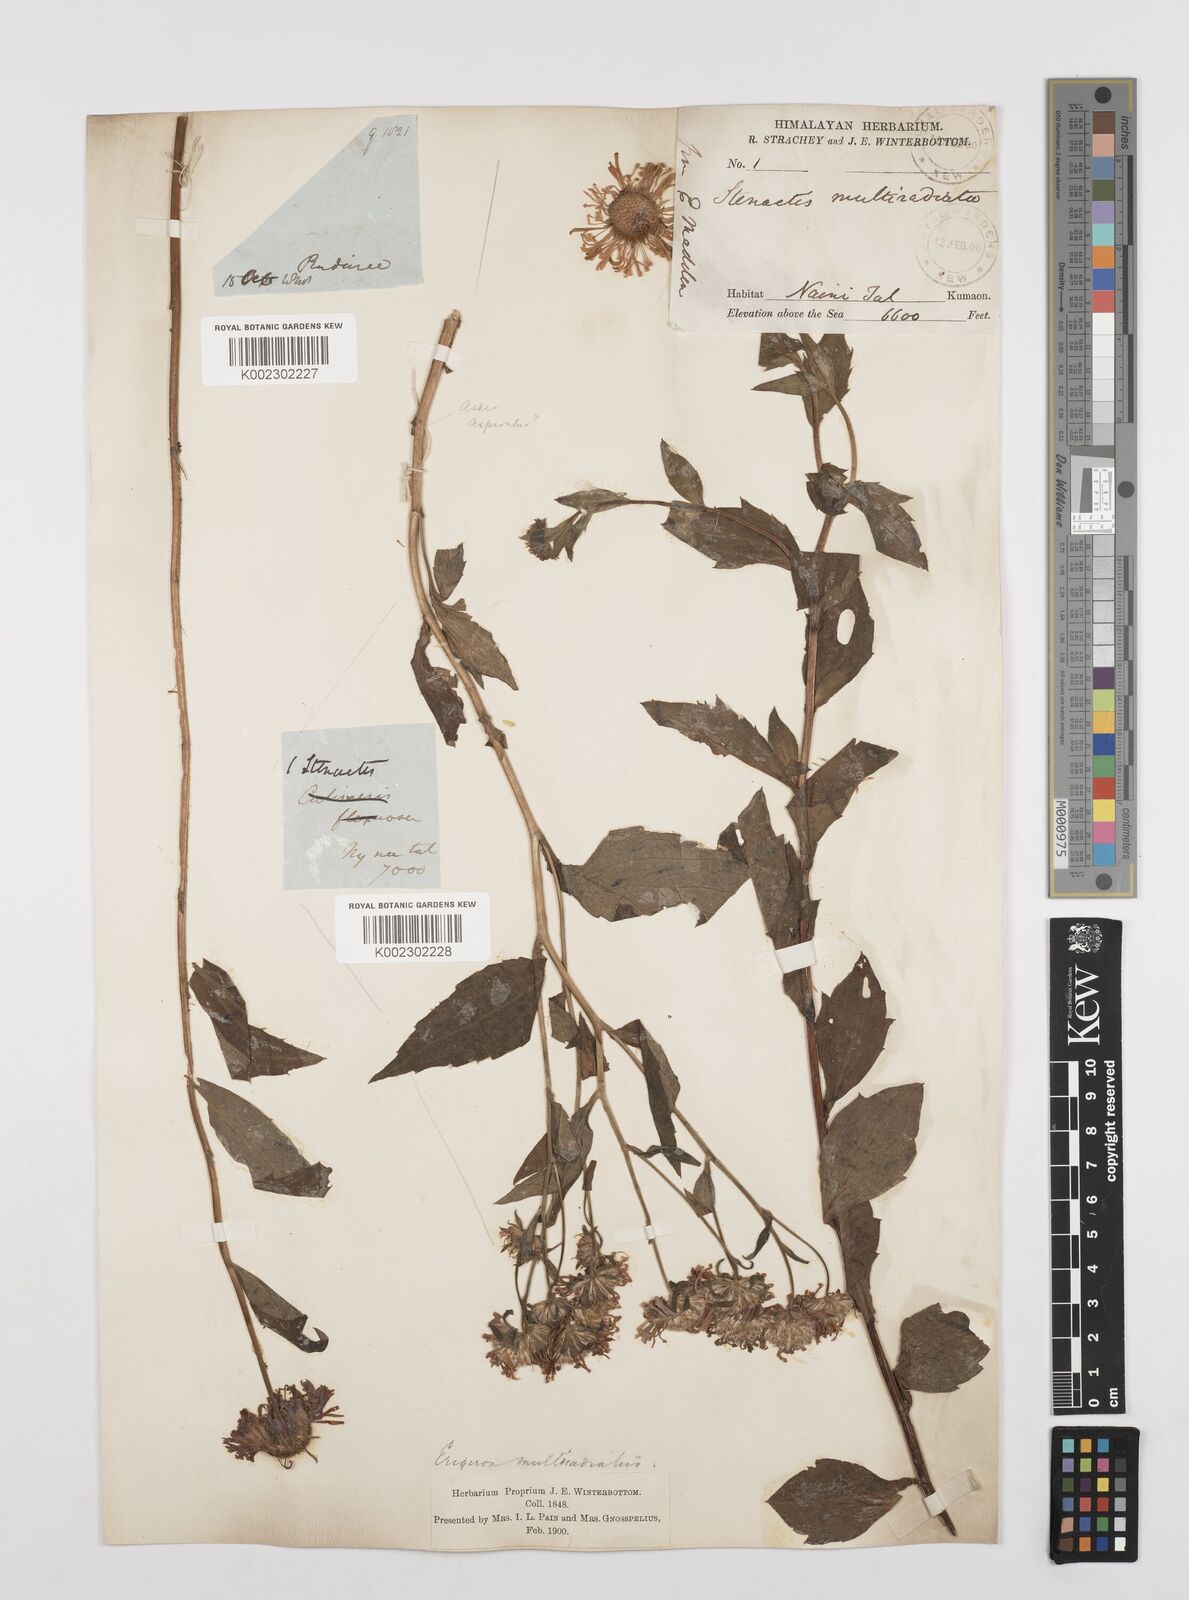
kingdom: Plantae
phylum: Tracheophyta
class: Magnoliopsida
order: Asterales
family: Asteraceae
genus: Erigeron
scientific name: Erigeron acris
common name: Blue fleabane
